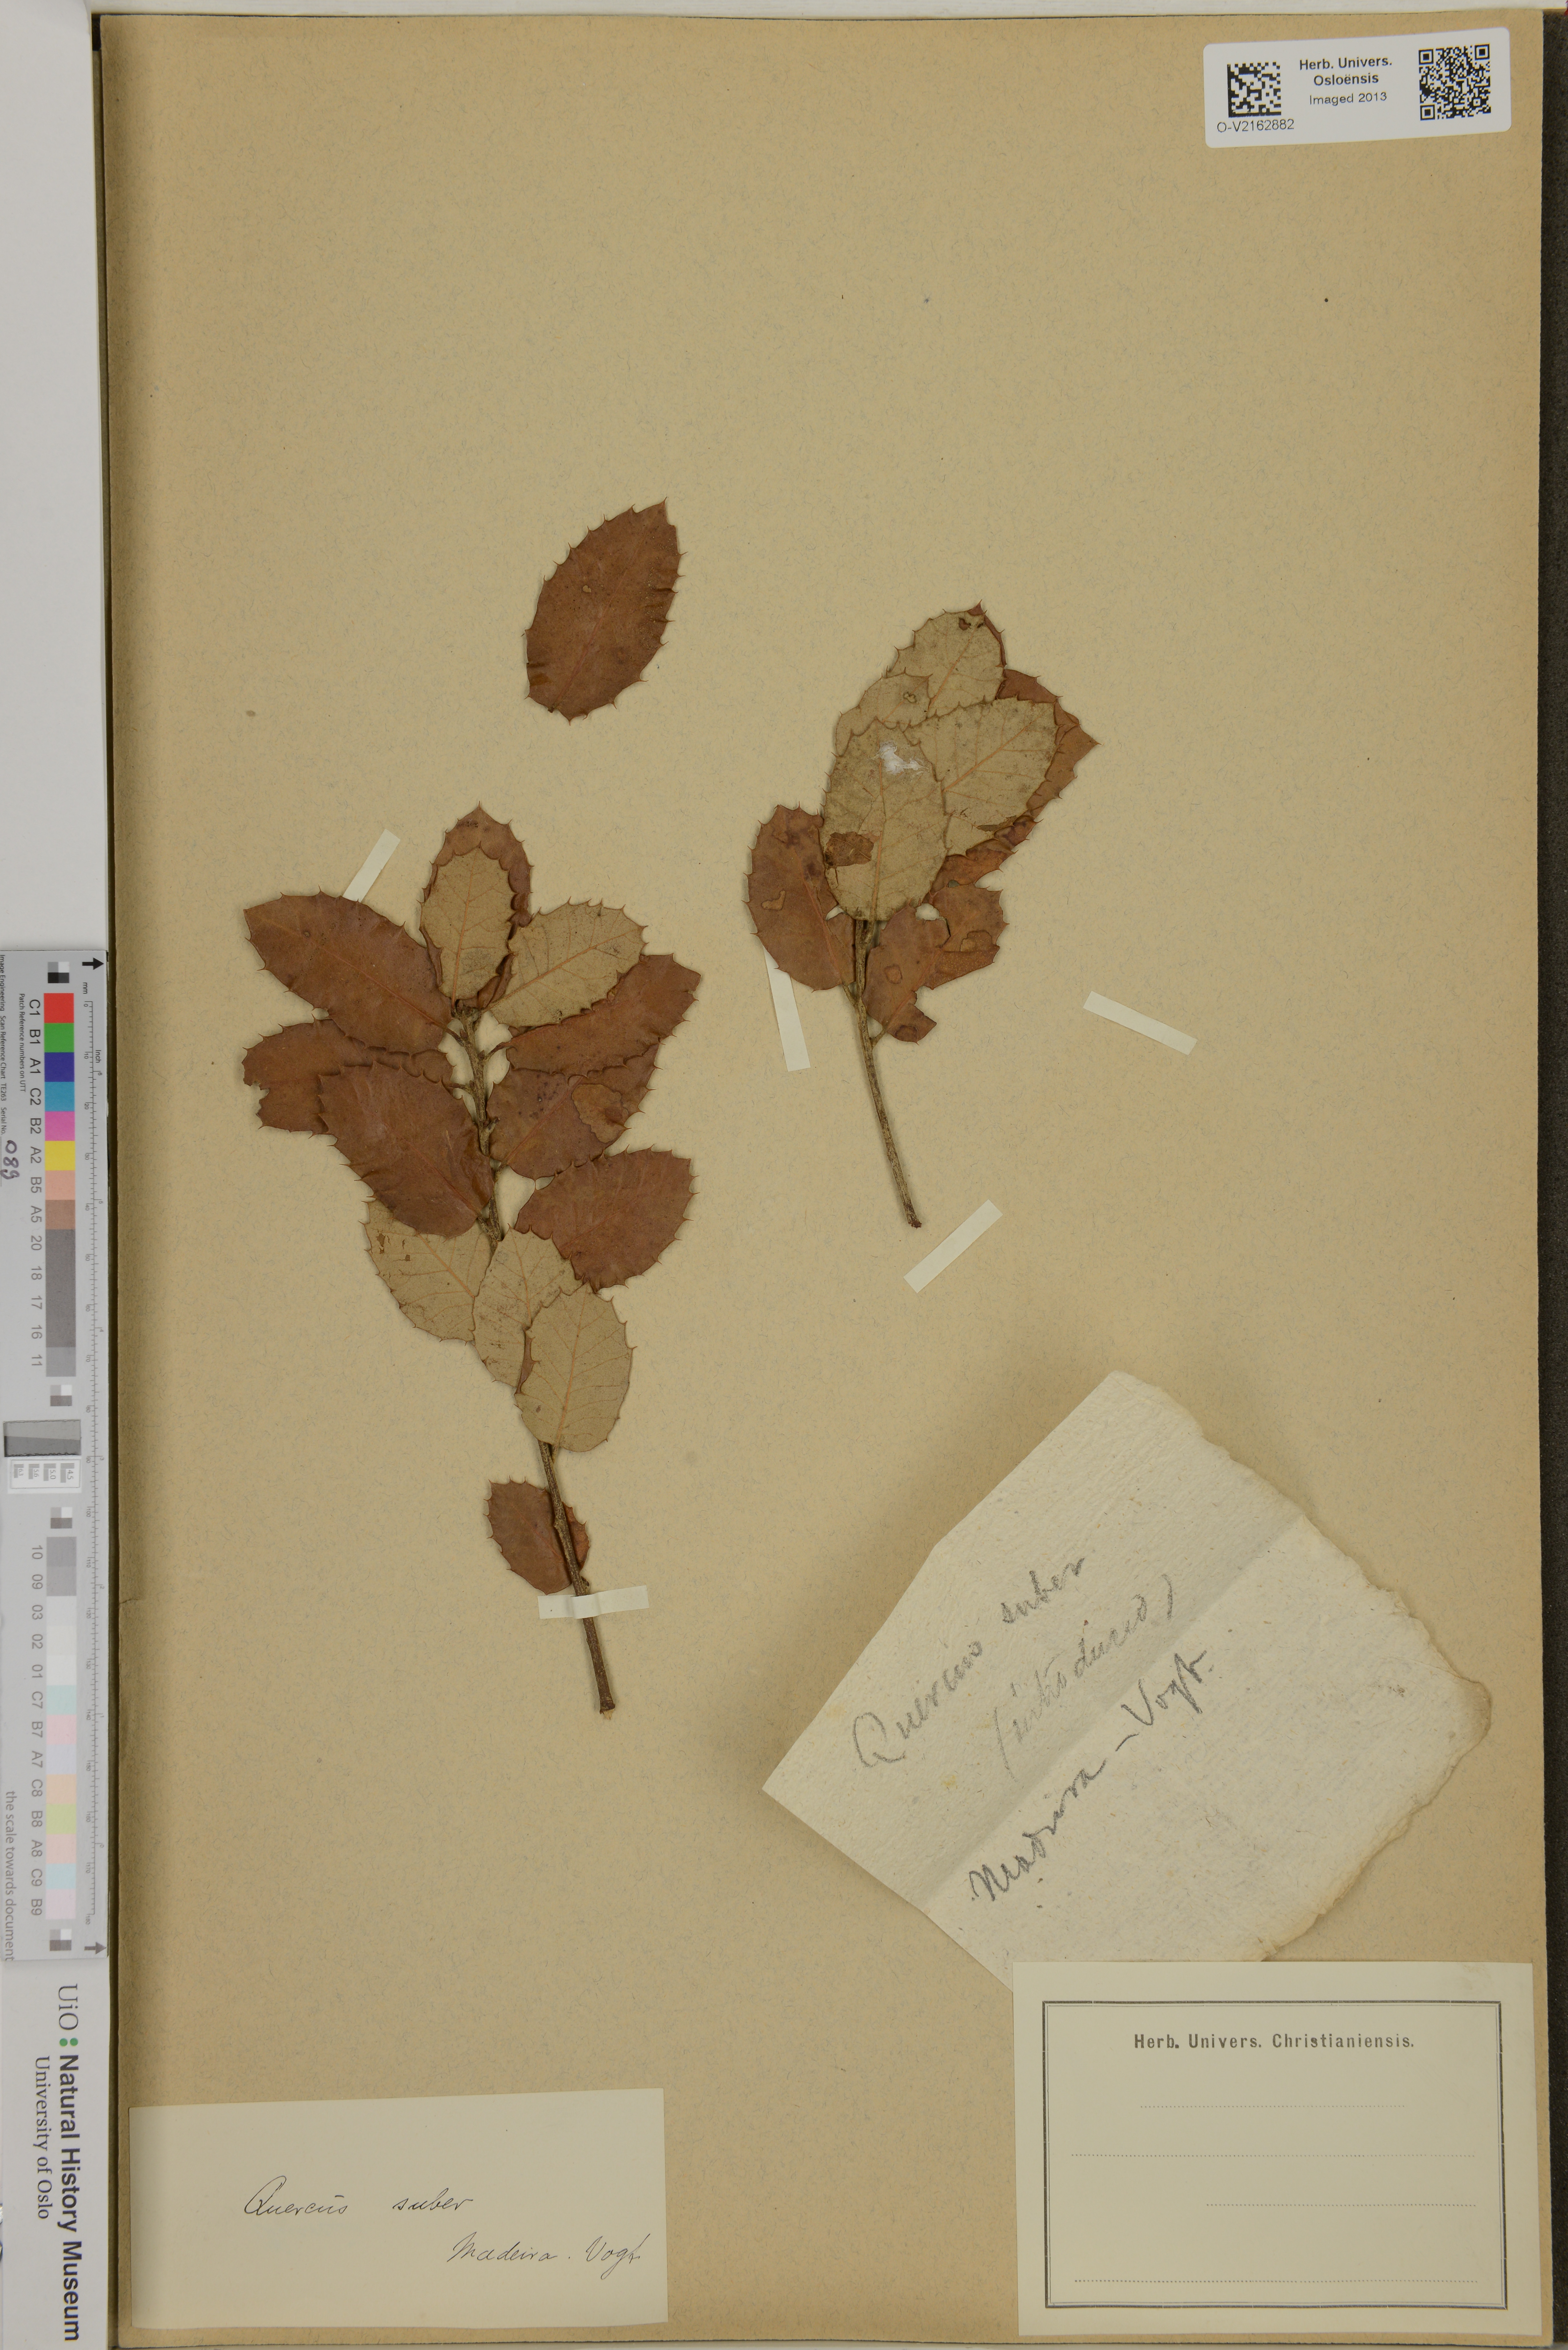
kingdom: Plantae
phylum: Tracheophyta
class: Magnoliopsida
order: Fagales
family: Fagaceae
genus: Quercus
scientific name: Quercus suber
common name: Cork oak
